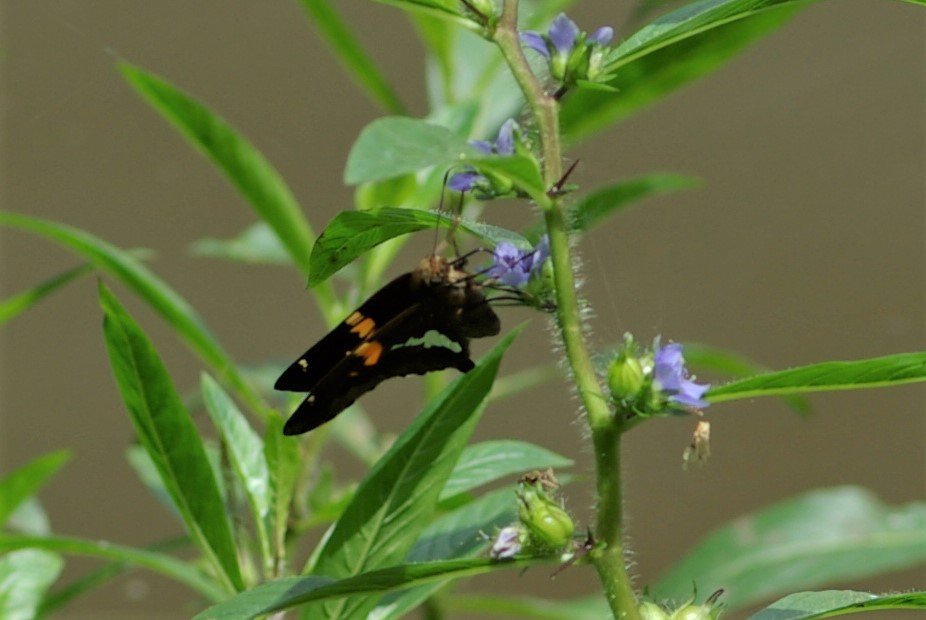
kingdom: Animalia
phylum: Arthropoda
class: Insecta
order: Lepidoptera
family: Hesperiidae
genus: Epargyreus
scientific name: Epargyreus clarus
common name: Silver-spotted Skipper
